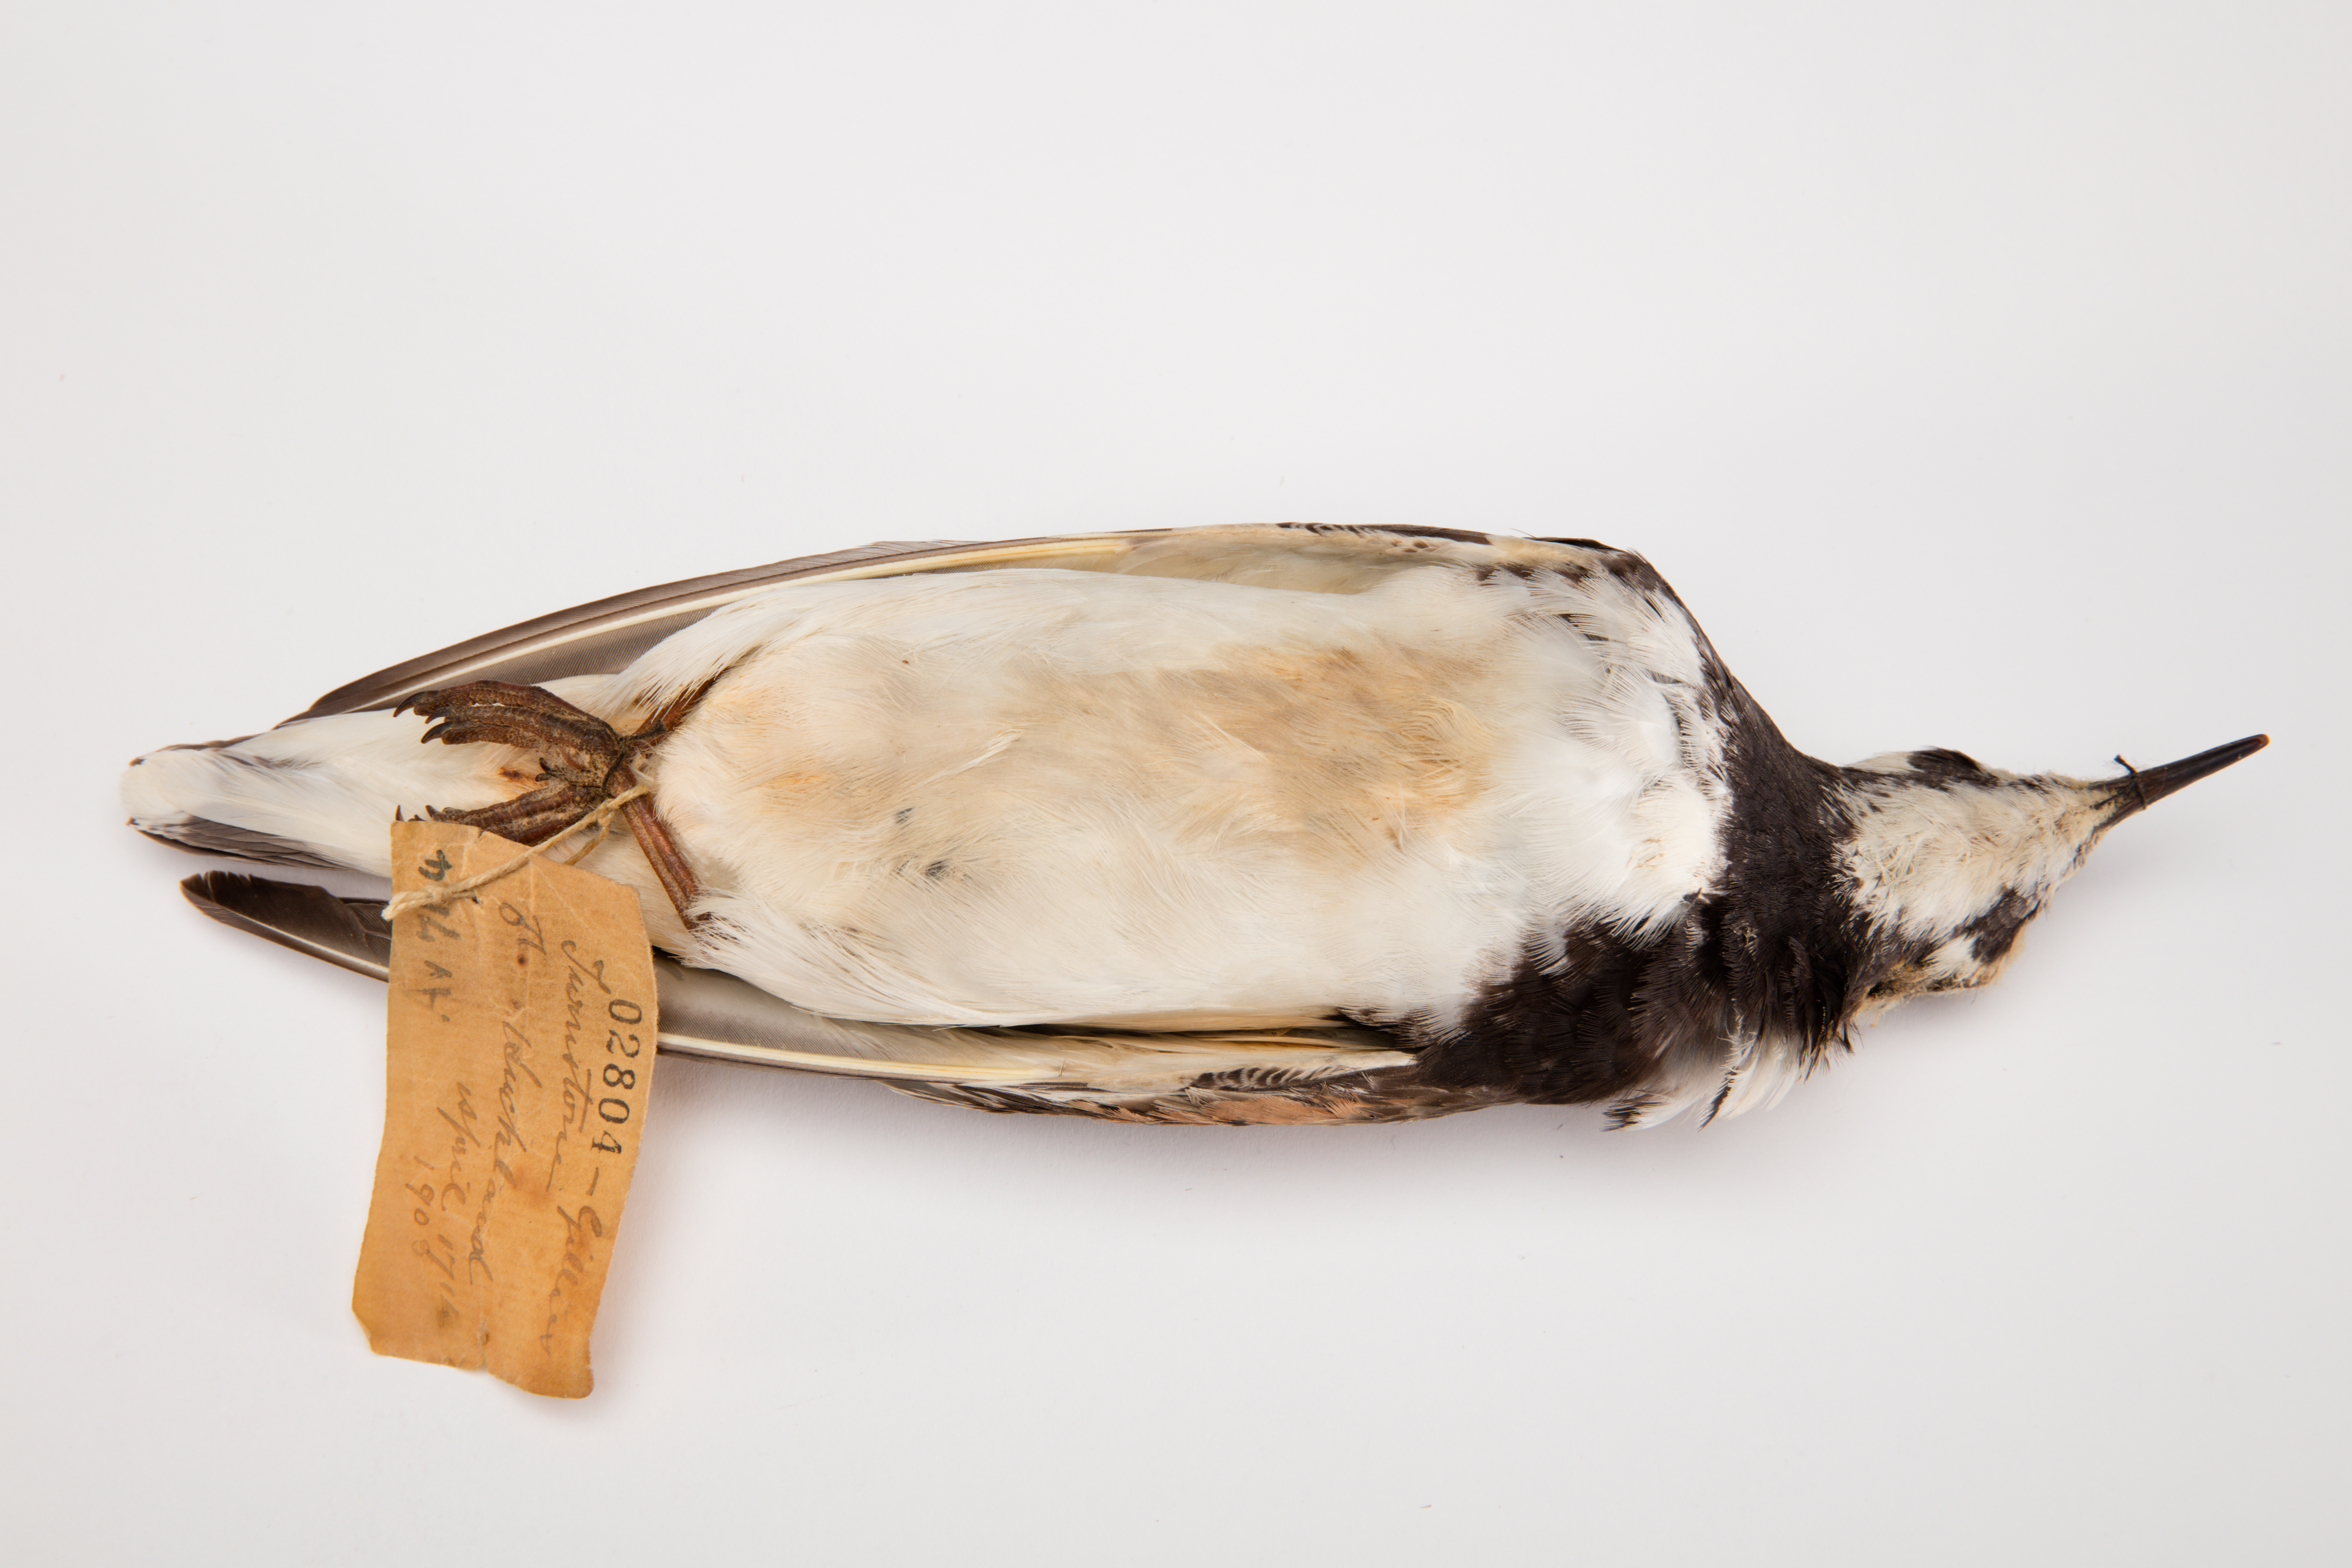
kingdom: Animalia
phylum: Chordata
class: Aves
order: Charadriiformes
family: Scolopacidae
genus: Arenaria
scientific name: Arenaria interpres
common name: Ruddy turnstone
